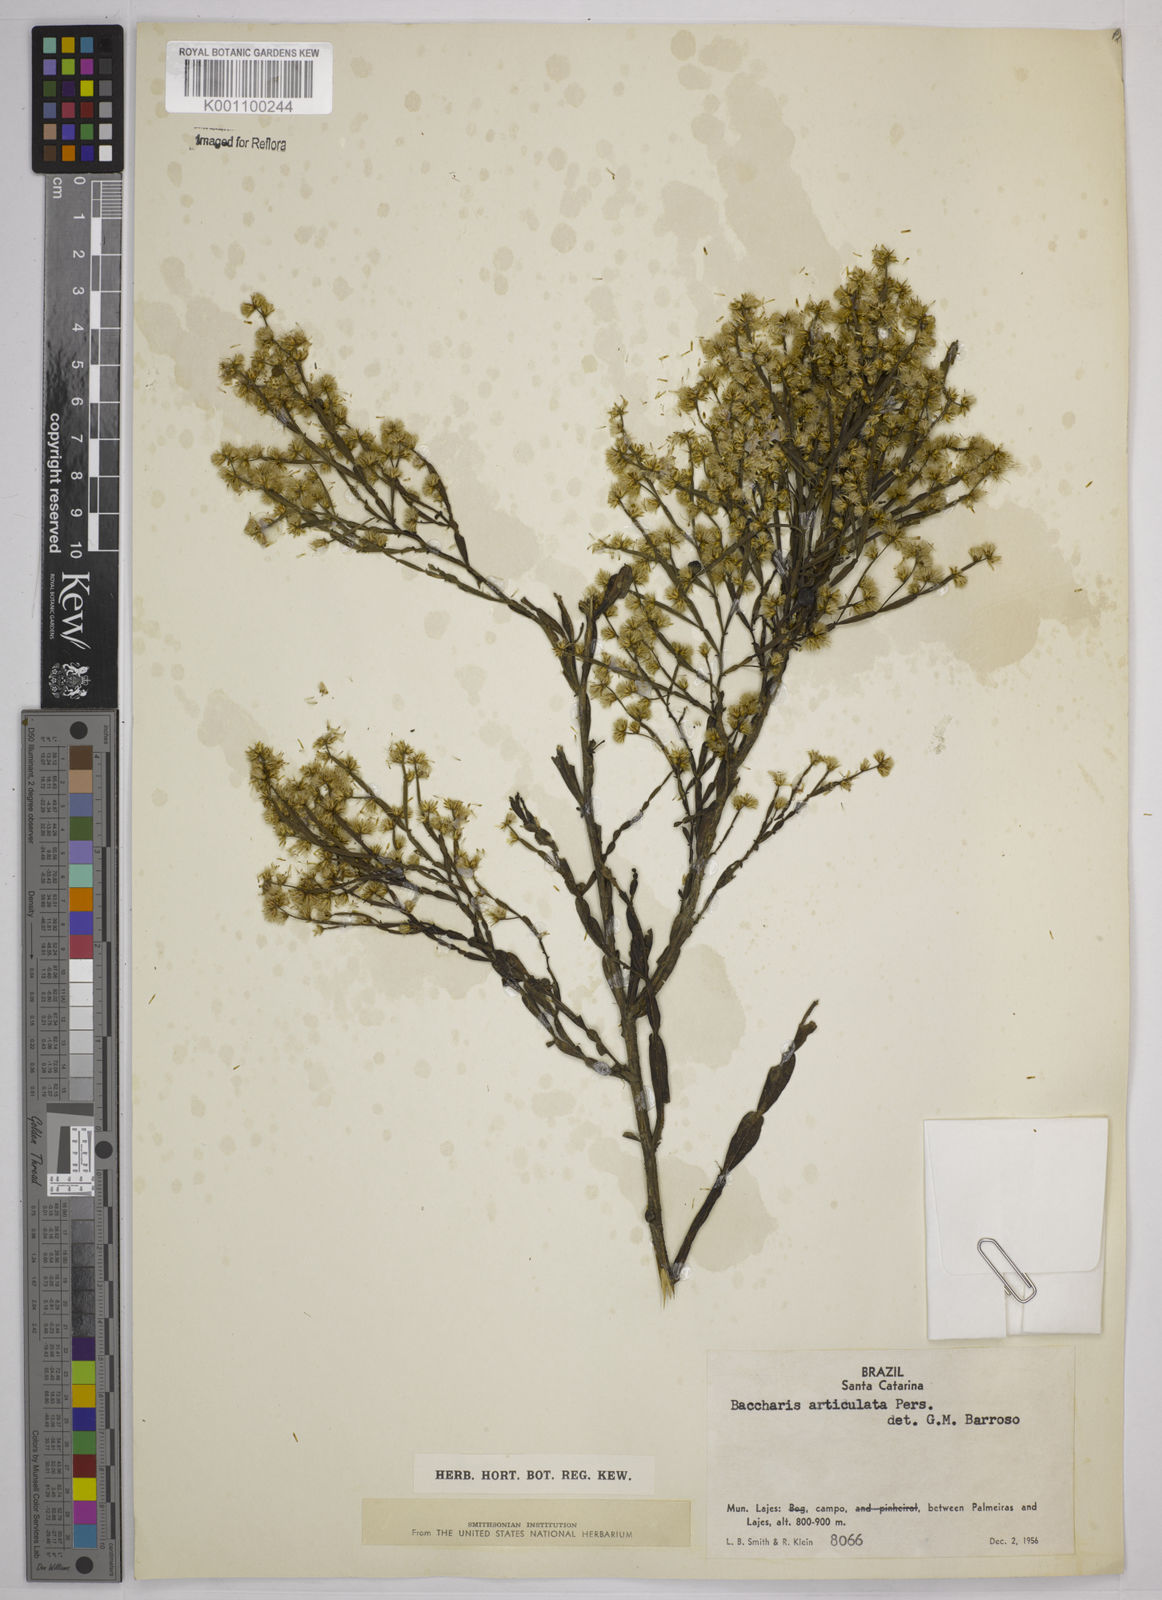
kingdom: Plantae
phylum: Tracheophyta
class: Magnoliopsida
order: Asterales
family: Asteraceae
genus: Baccharis
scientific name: Baccharis articulata
